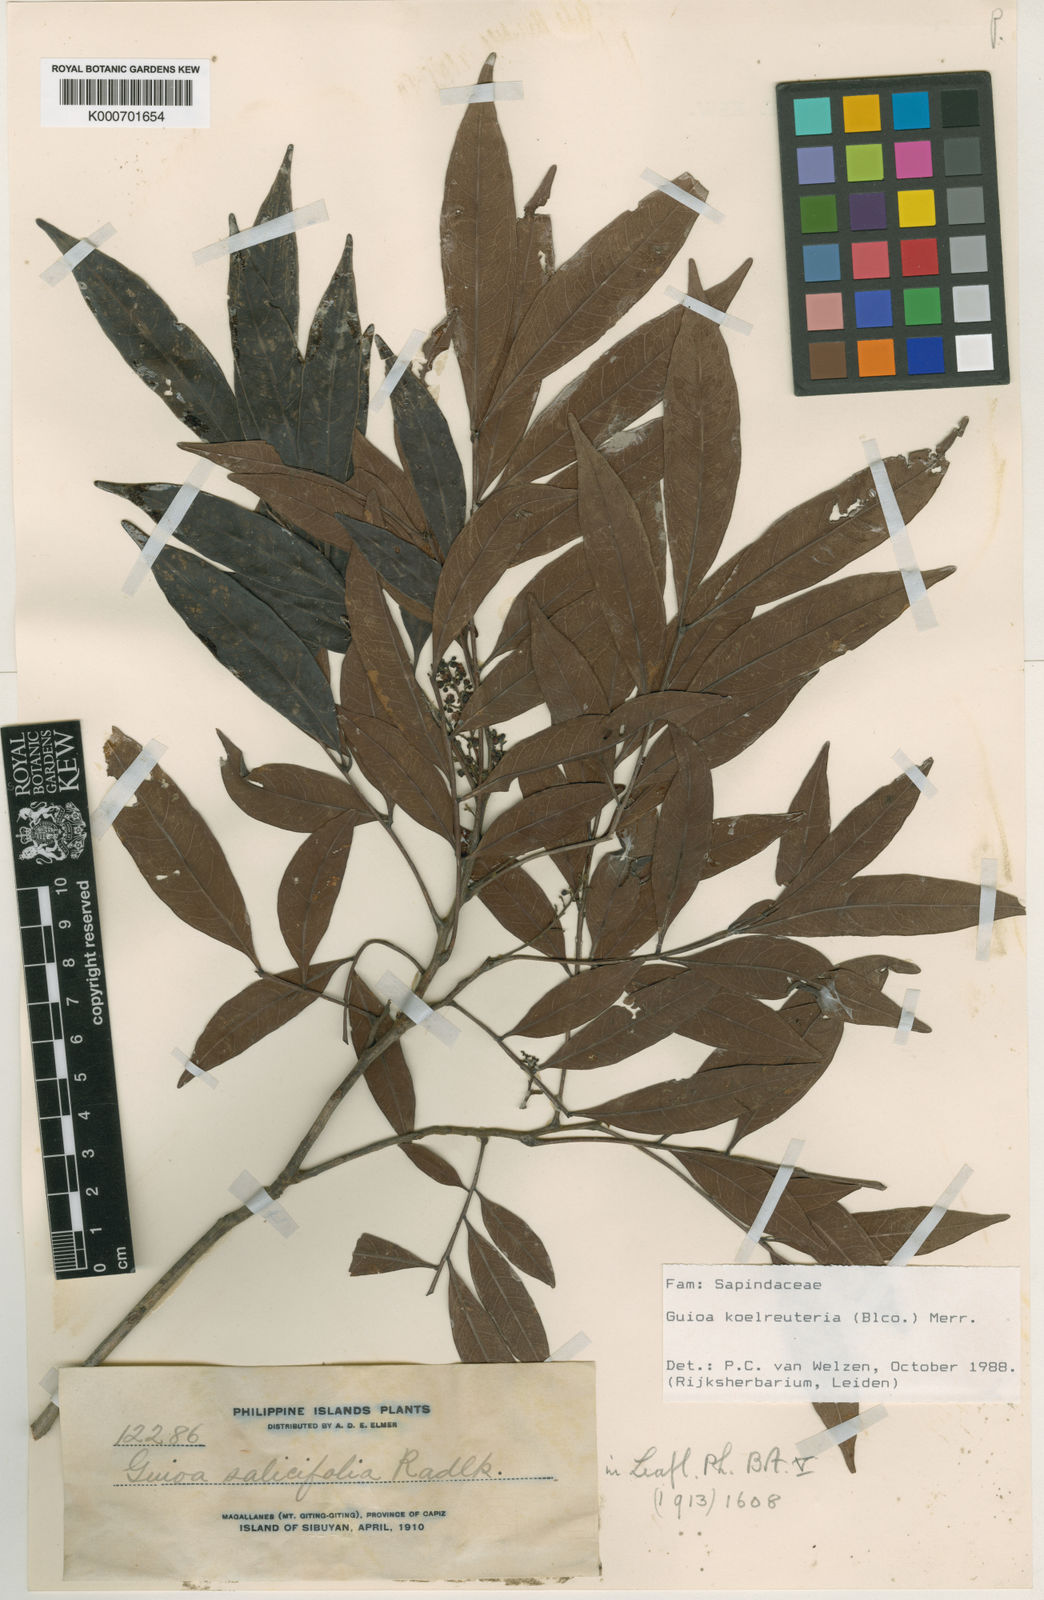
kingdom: Plantae
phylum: Tracheophyta
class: Magnoliopsida
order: Sapindales
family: Sapindaceae
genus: Guioa
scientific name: Guioa koelreuteria
